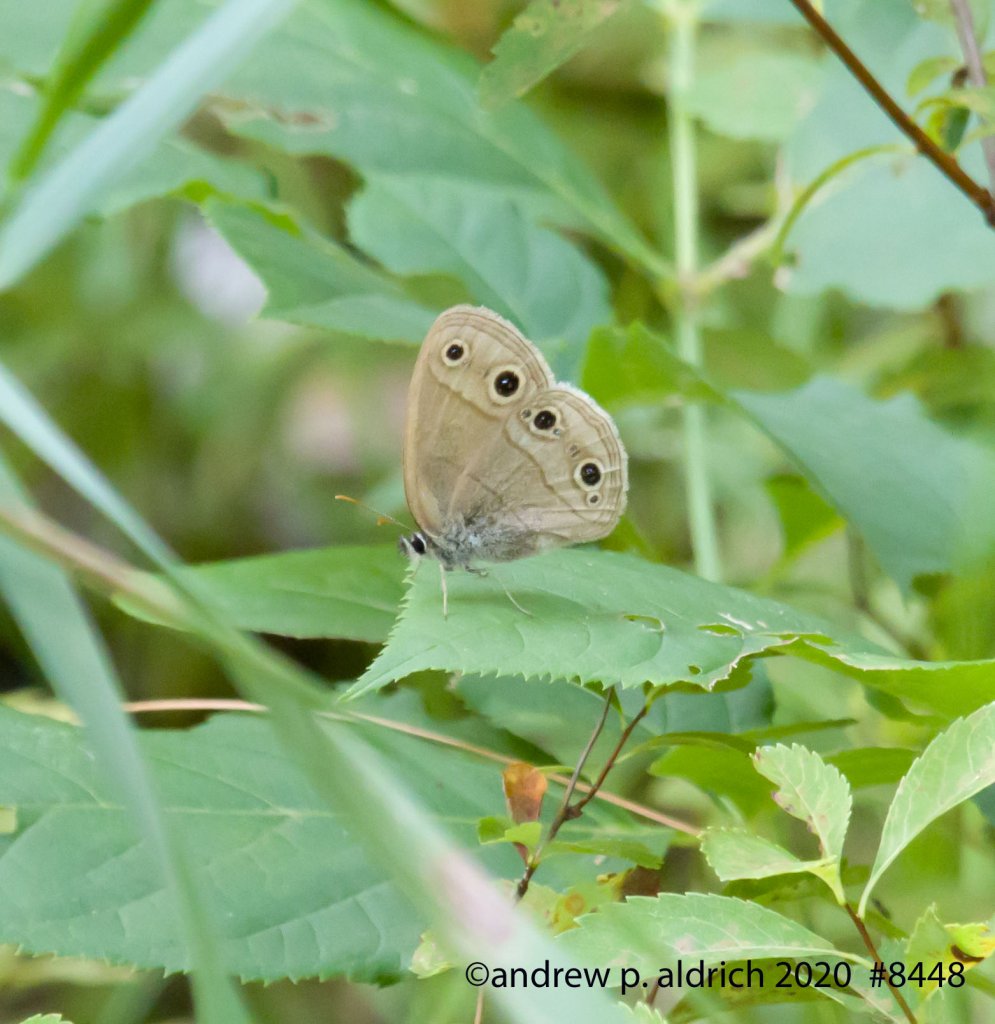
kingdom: Animalia
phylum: Arthropoda
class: Insecta
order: Lepidoptera
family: Nymphalidae
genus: Euptychia
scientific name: Euptychia cymela
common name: Little Wood Satyr
